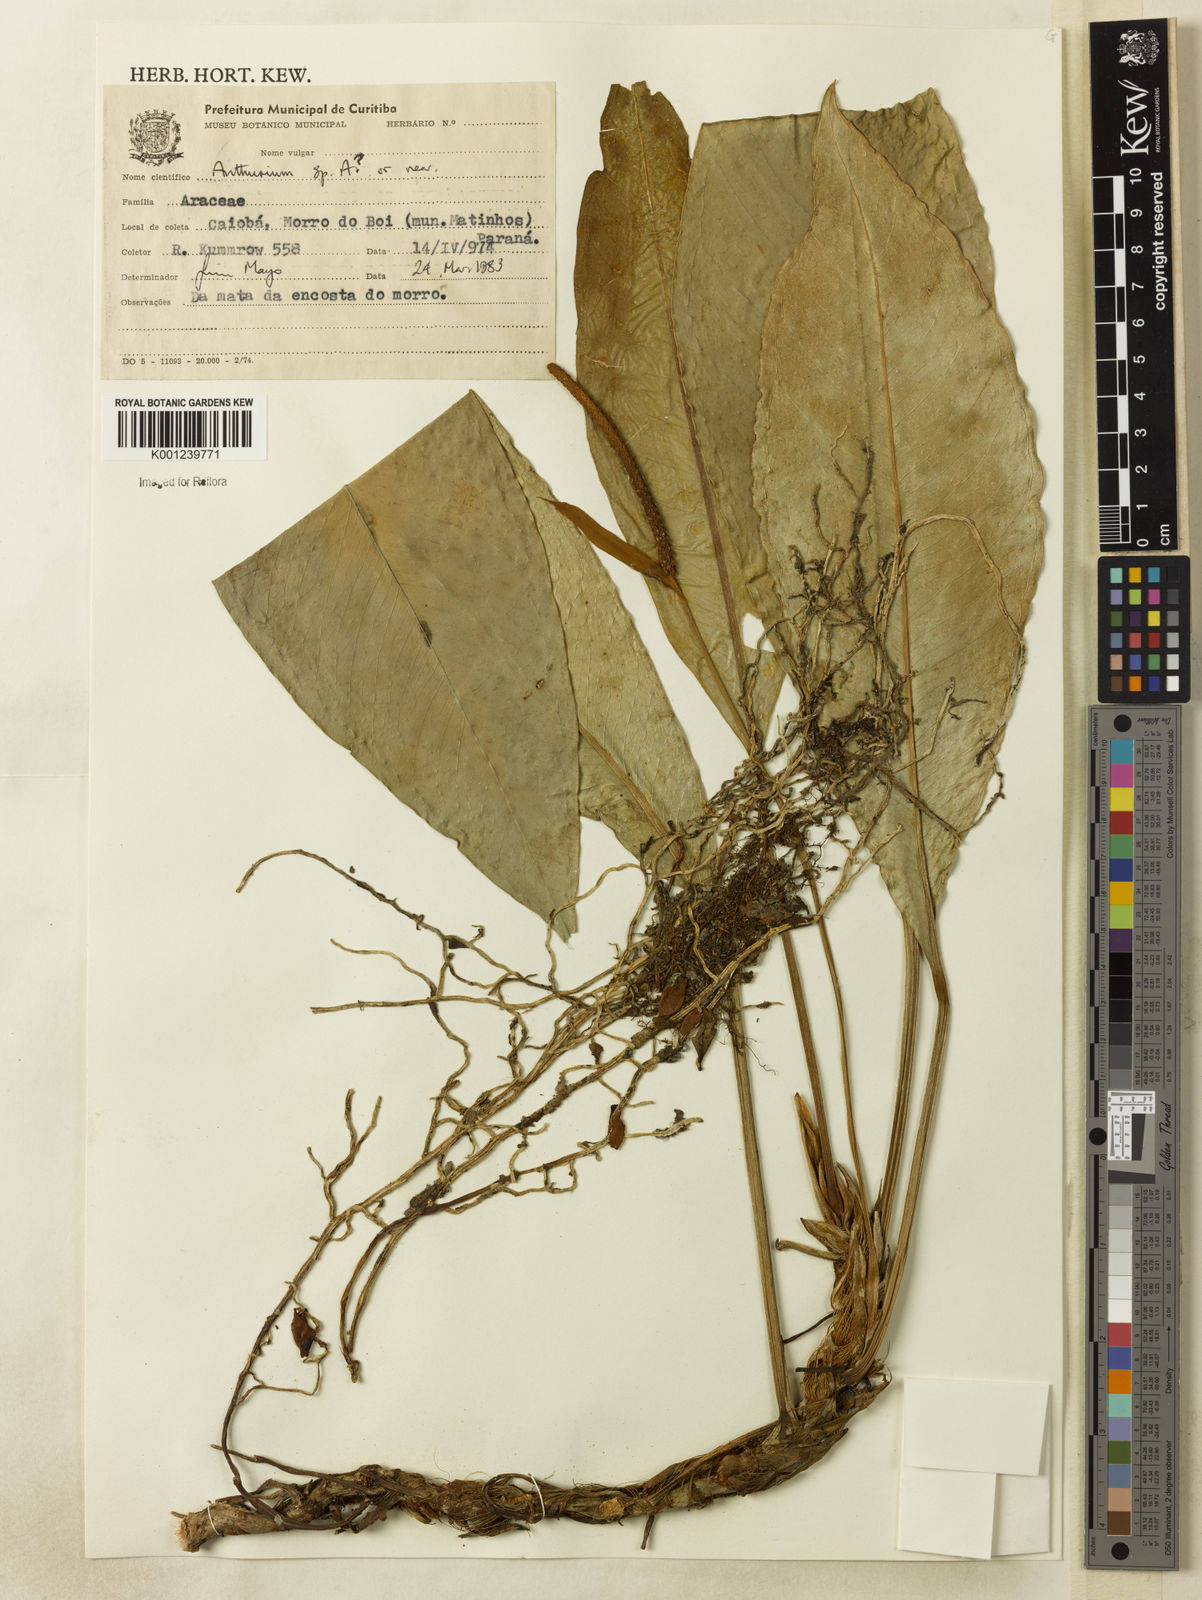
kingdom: Plantae
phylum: Tracheophyta
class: Liliopsida
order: Alismatales
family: Araceae
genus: Anthurium
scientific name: Anthurium
